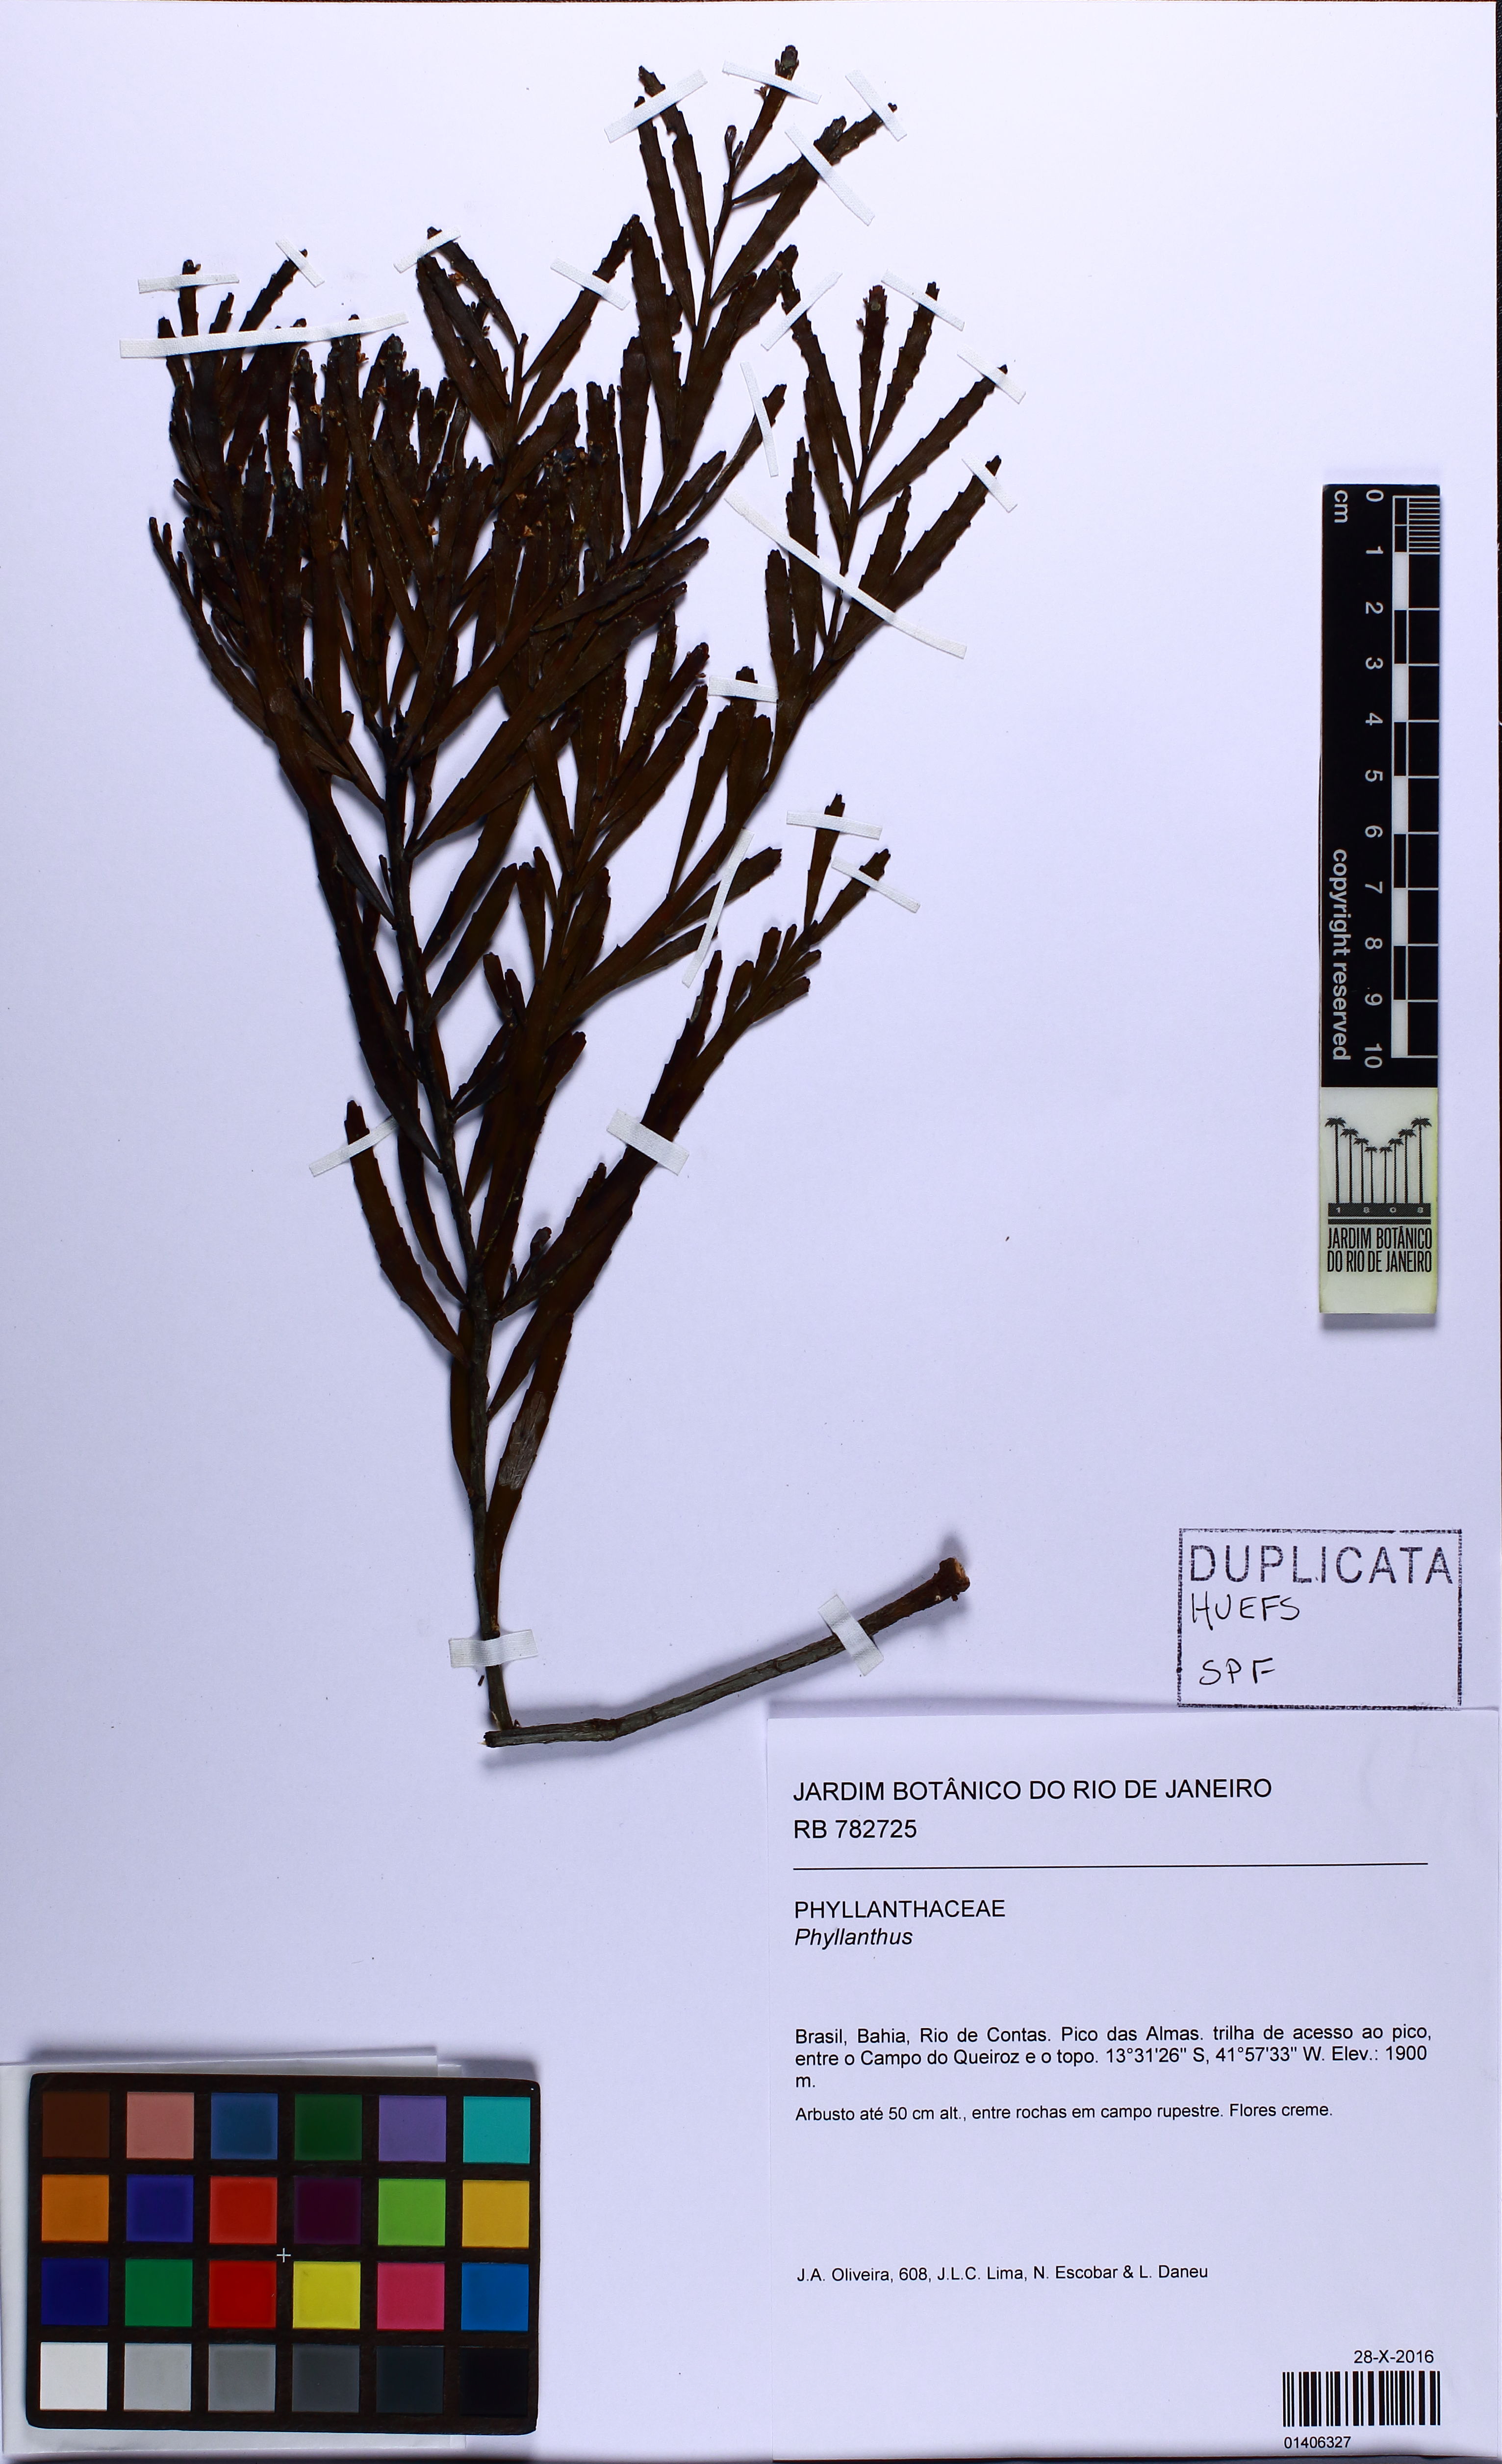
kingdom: Plantae
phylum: Tracheophyta
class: Magnoliopsida
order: Malpighiales
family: Phyllanthaceae
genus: Phyllanthus
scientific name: Phyllanthus robustus
